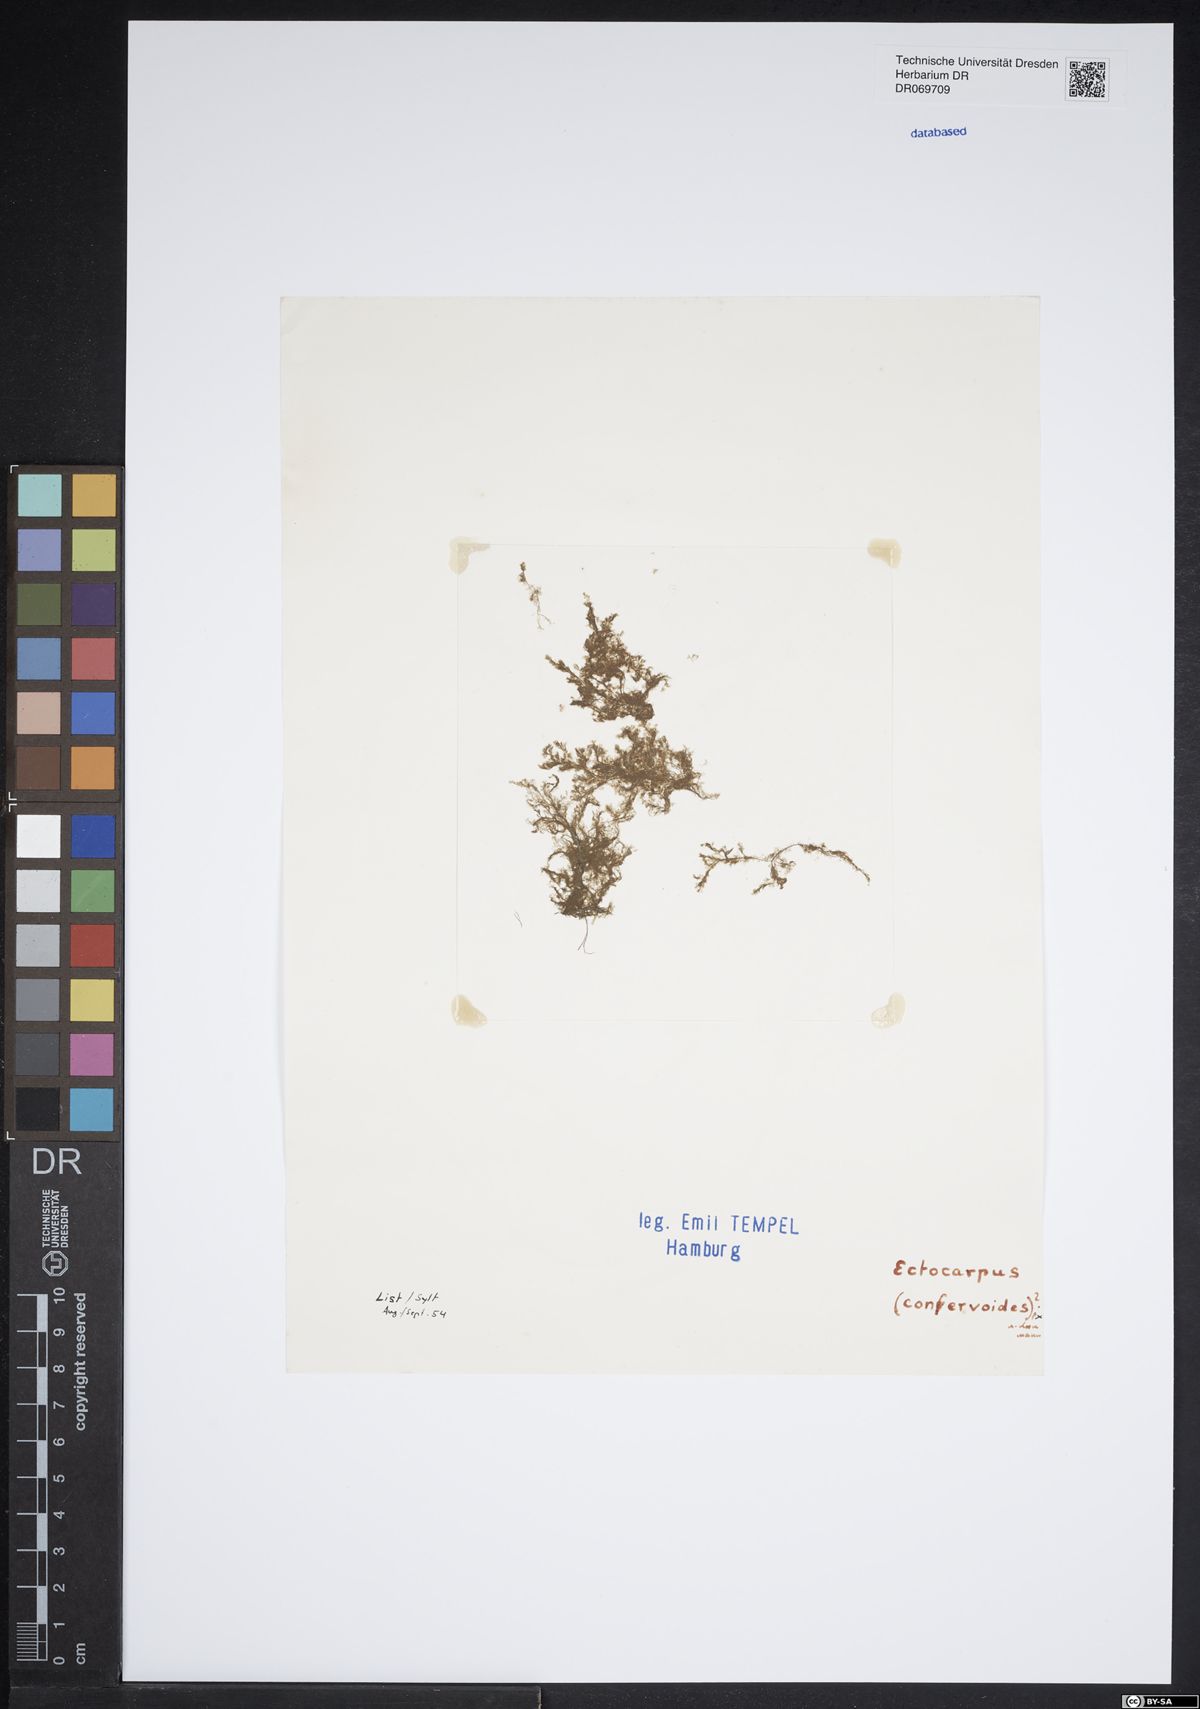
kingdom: Chromista
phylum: Ochrophyta
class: Phaeophyceae
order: Ectocarpales
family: Ectocarpaceae
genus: Ectocarpus
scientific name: Ectocarpus siliculosus
